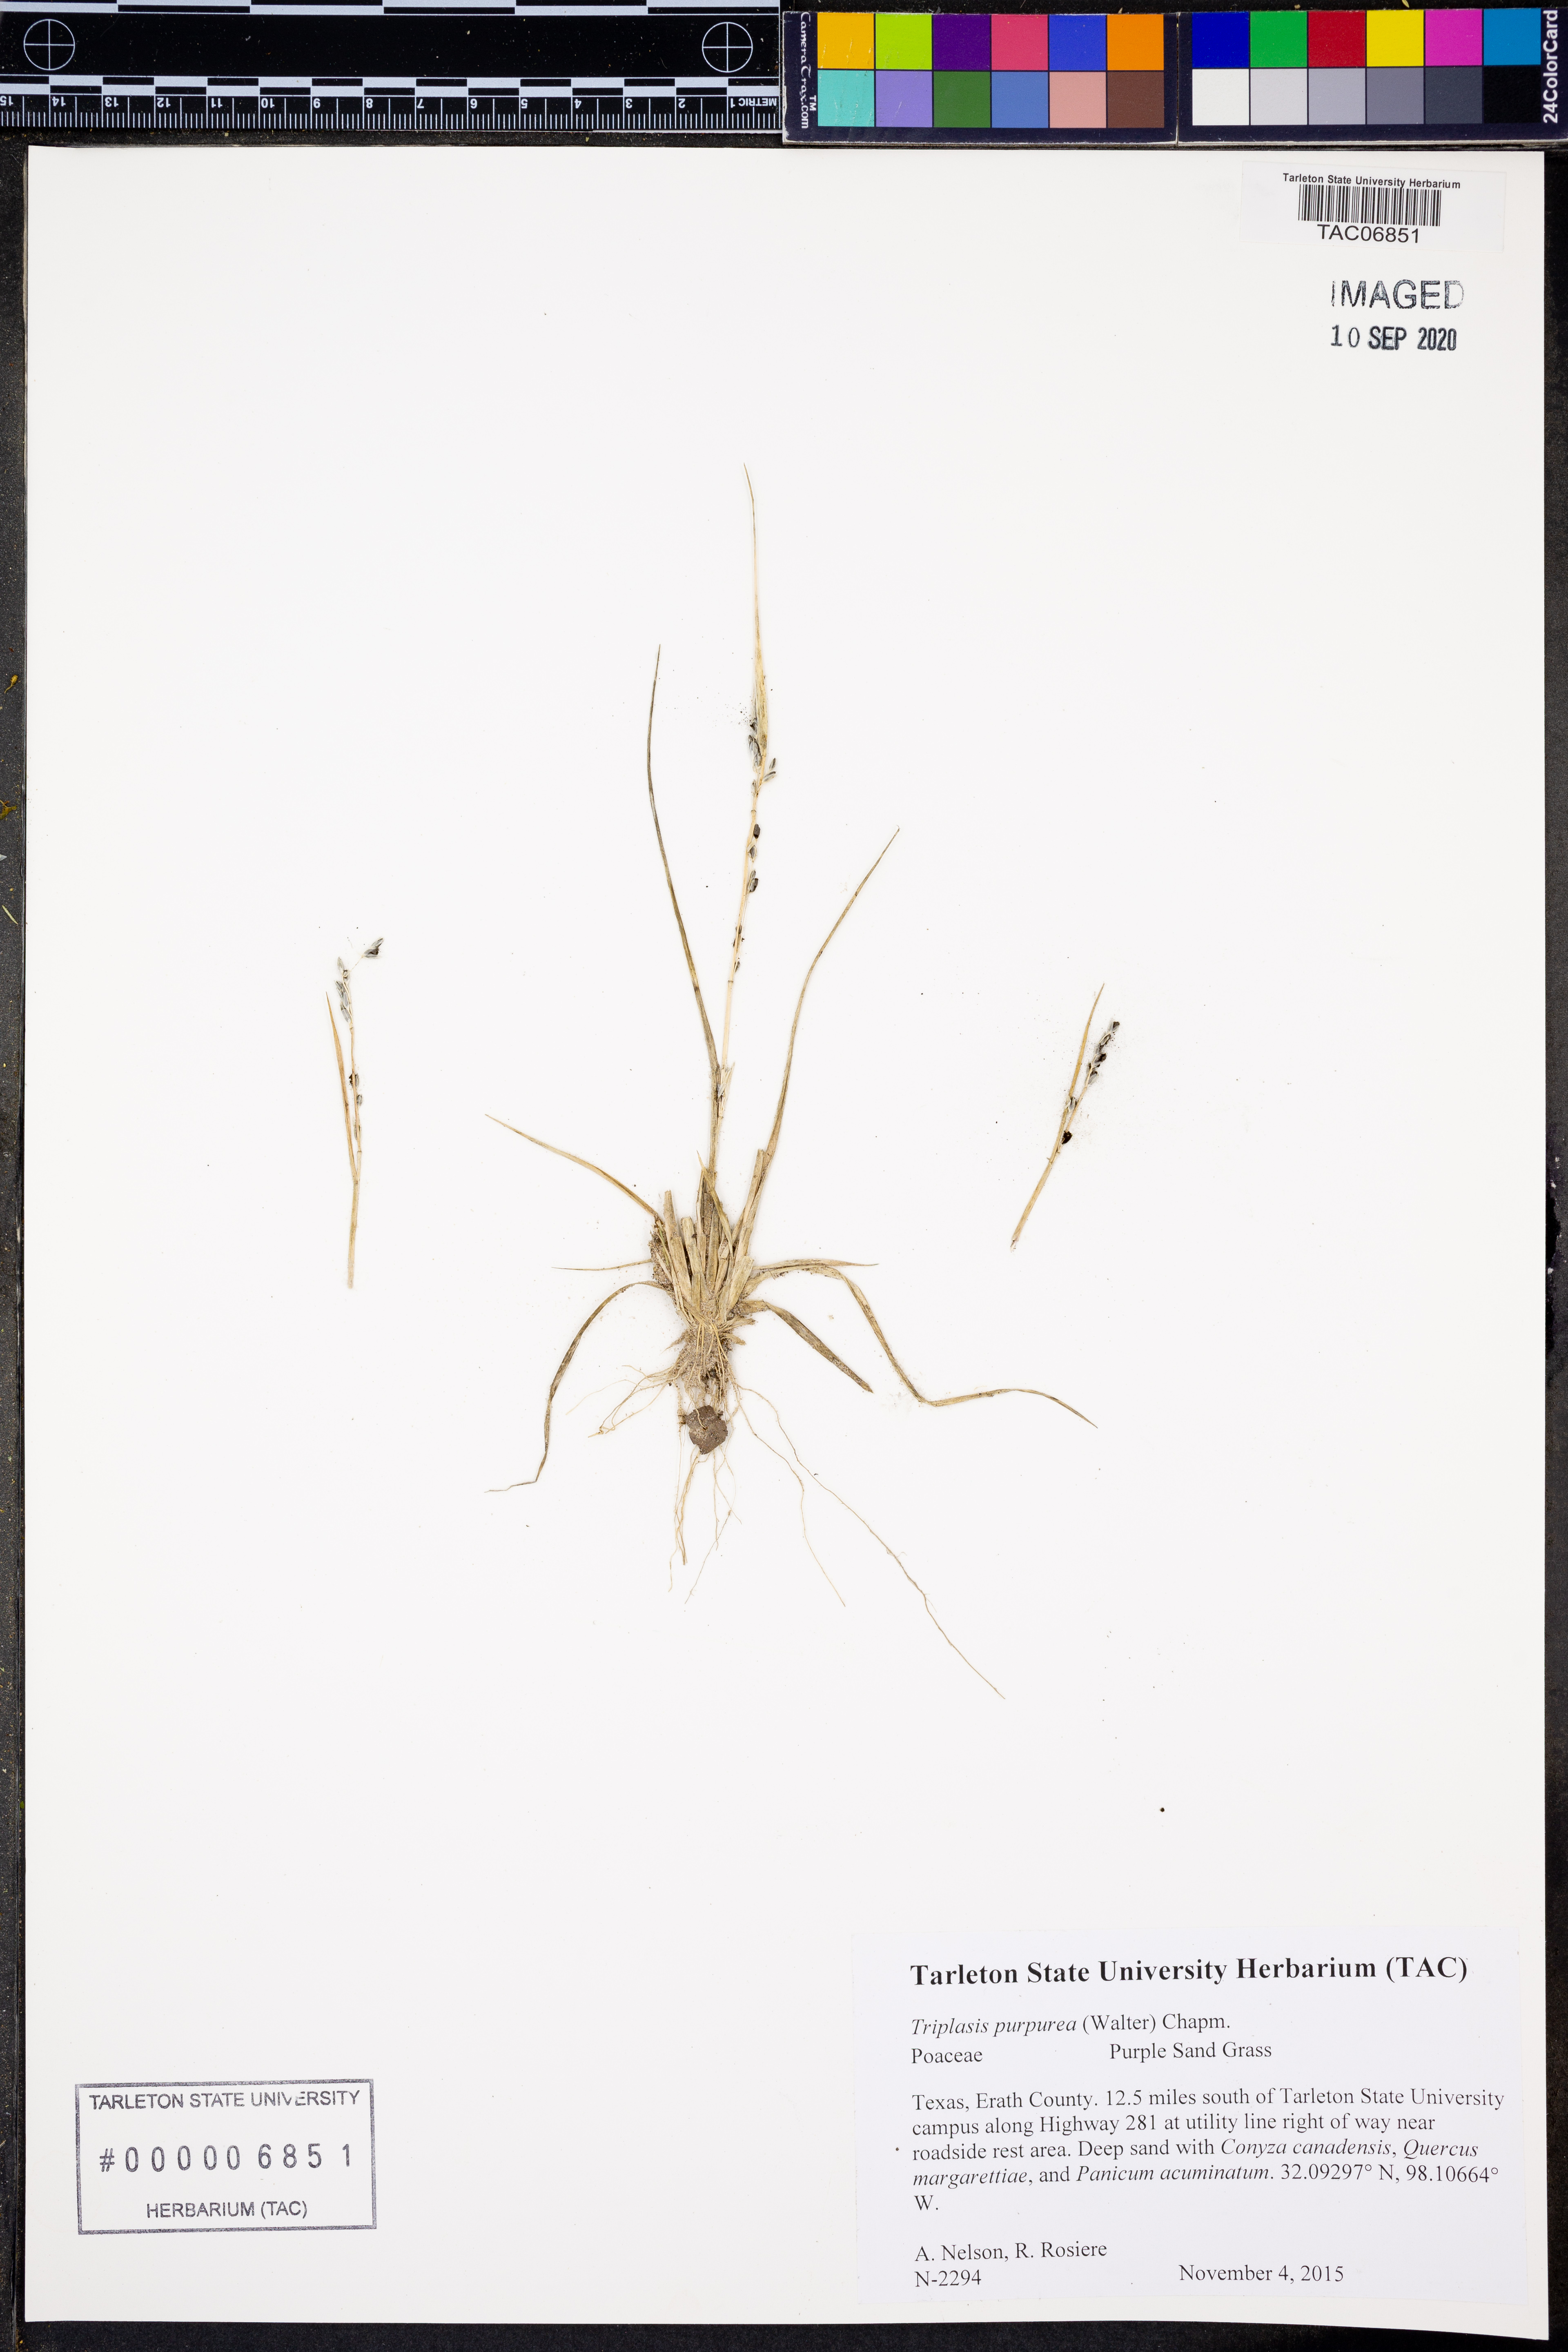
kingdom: Plantae
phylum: Tracheophyta
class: Liliopsida
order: Poales
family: Poaceae
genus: Triplasis
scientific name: Triplasis purpurea
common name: Purple sand grass
